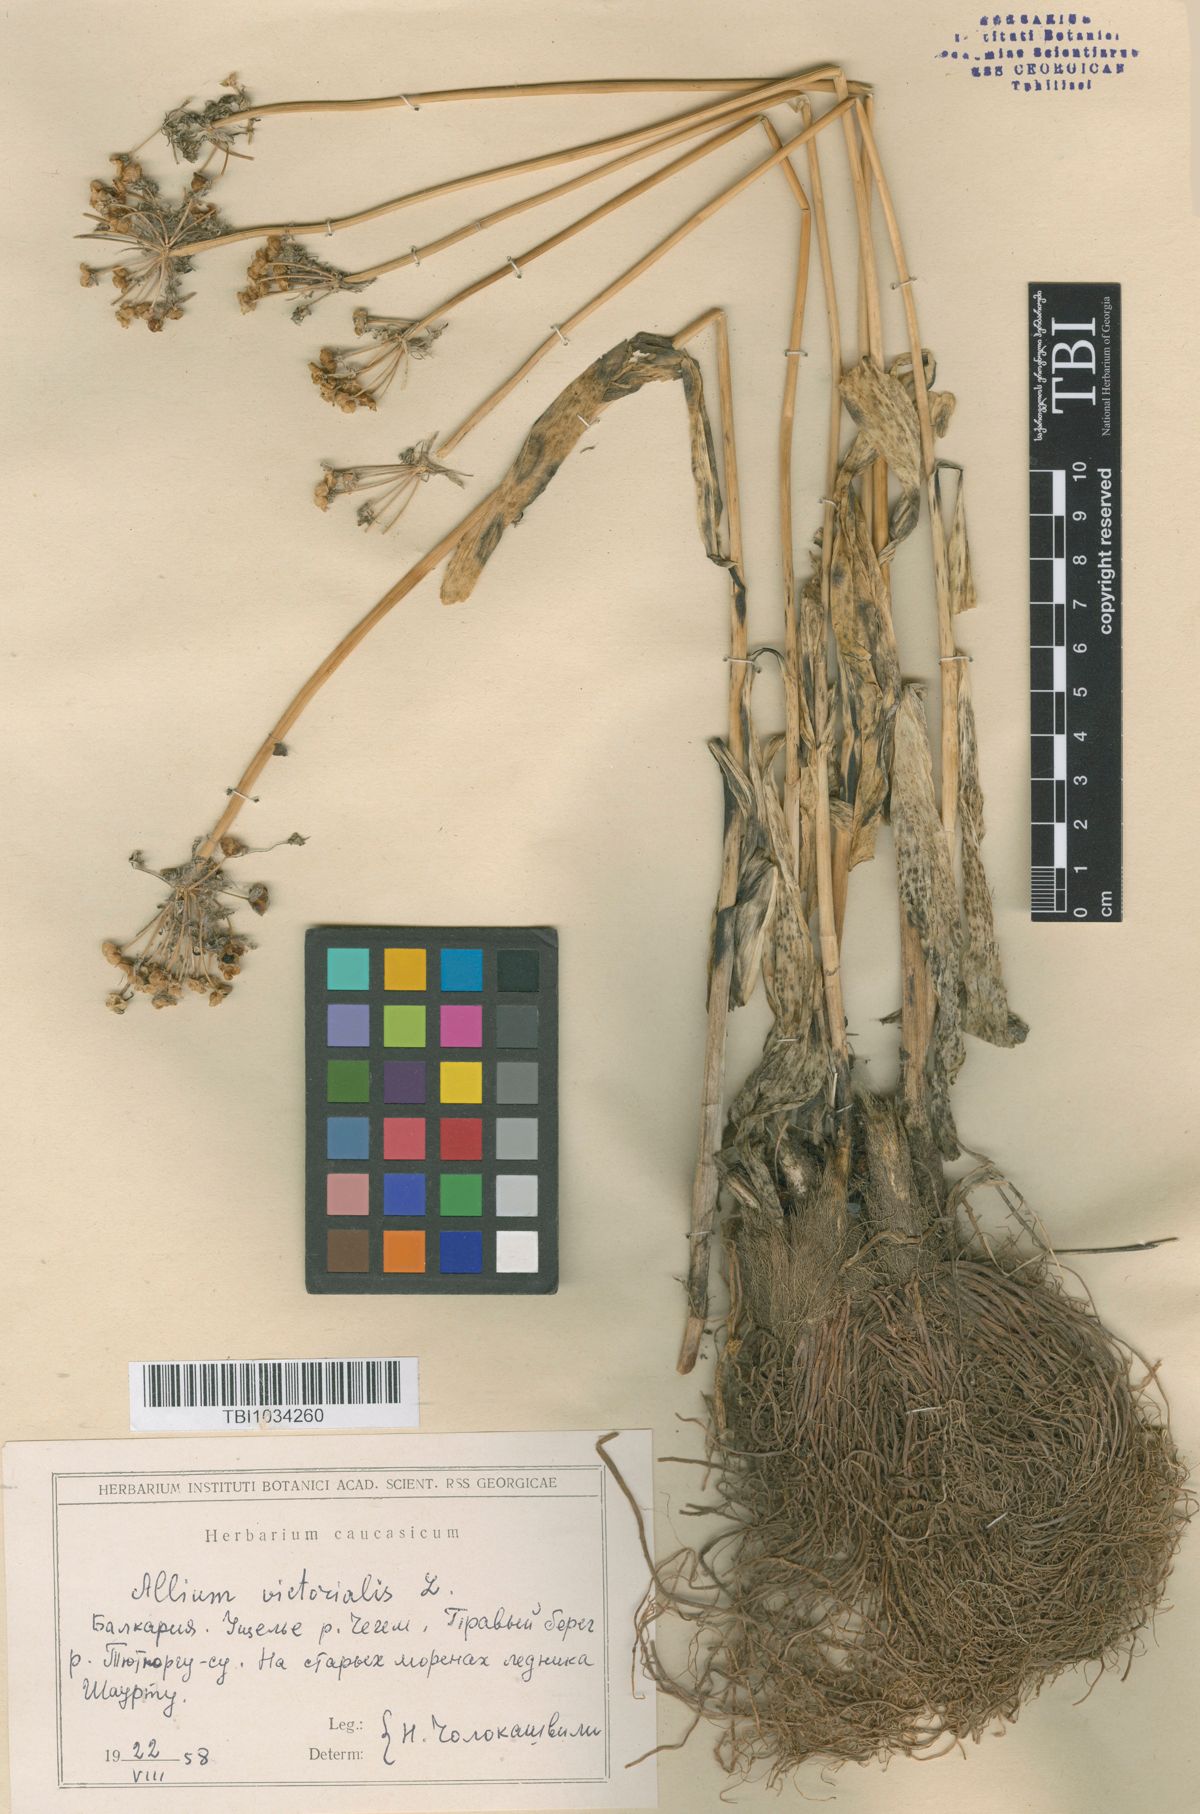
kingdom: Plantae
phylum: Tracheophyta
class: Liliopsida
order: Asparagales
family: Amaryllidaceae
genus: Allium
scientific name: Allium victorialis
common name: Alpine leek
